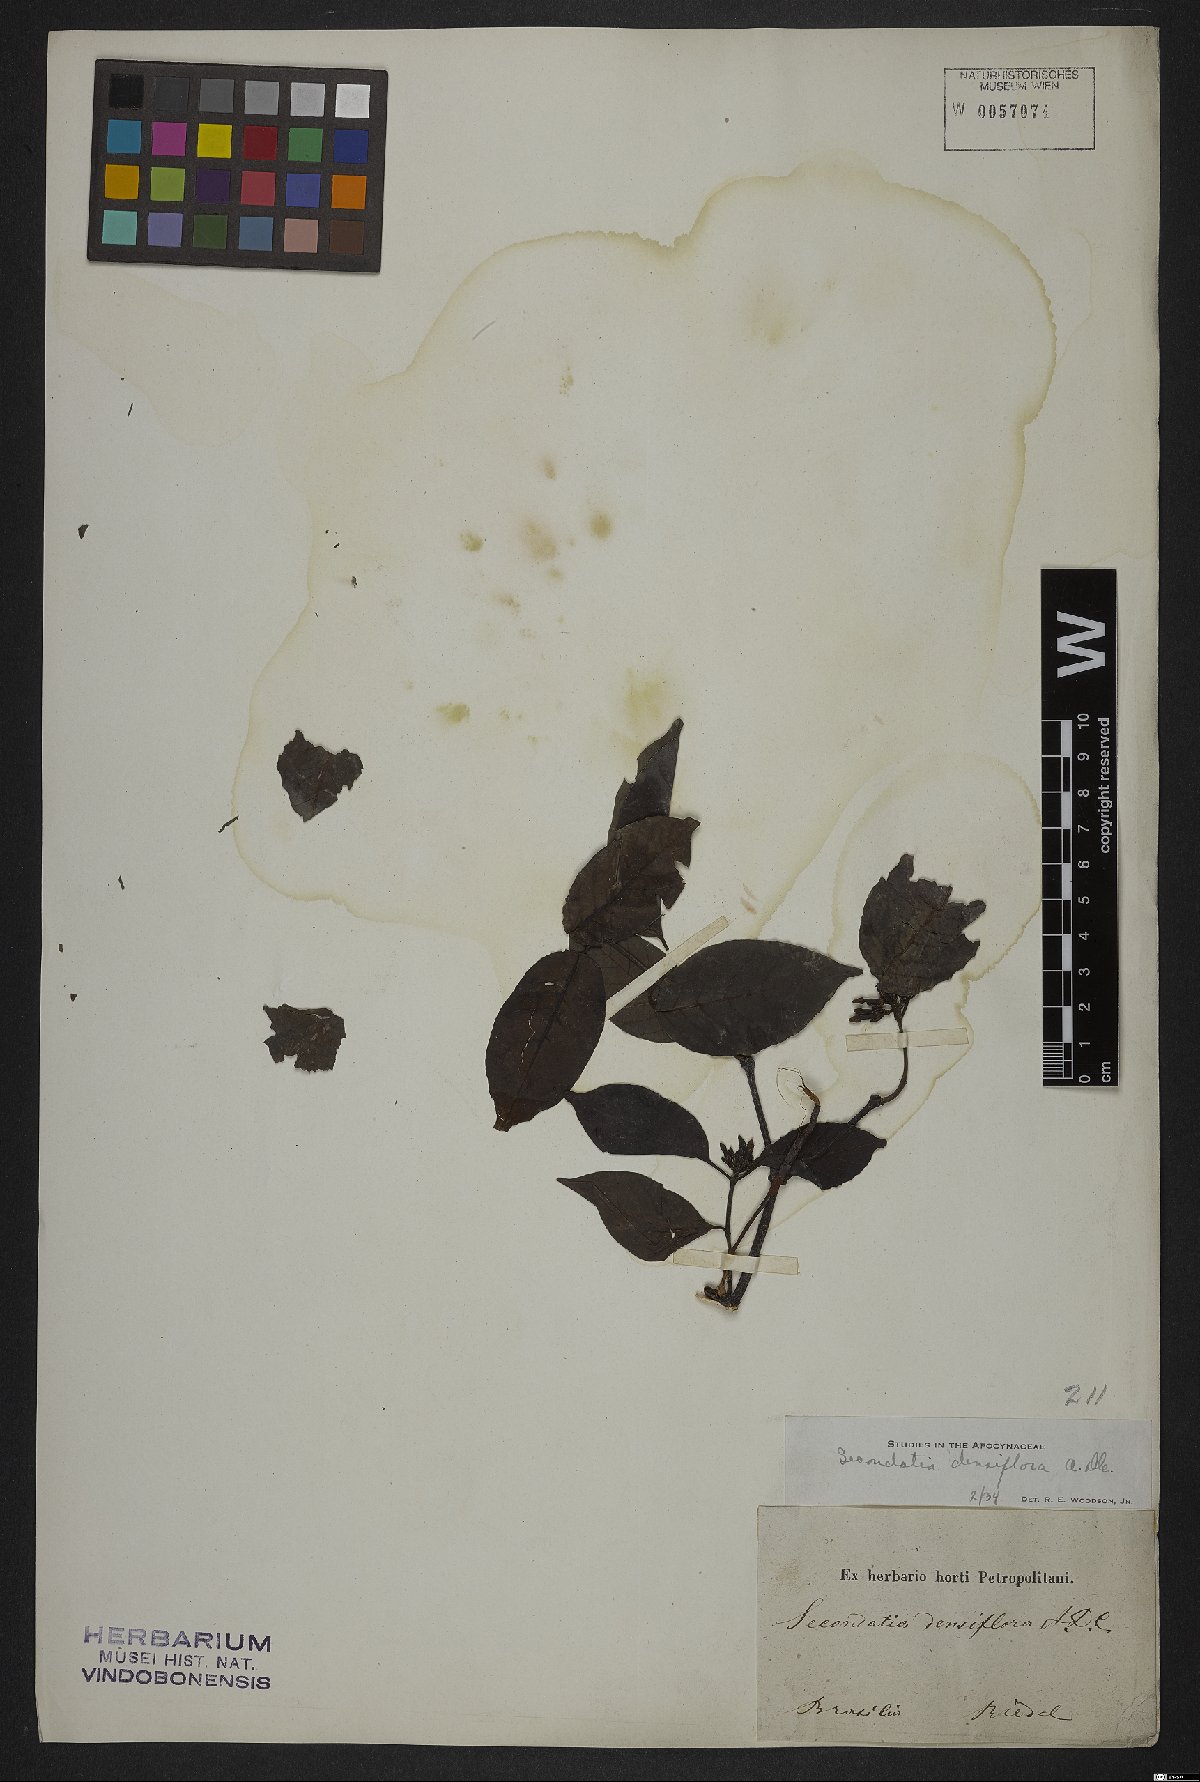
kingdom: Plantae
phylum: Tracheophyta
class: Magnoliopsida
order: Gentianales
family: Apocynaceae
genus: Secondatia
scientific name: Secondatia densiflora
